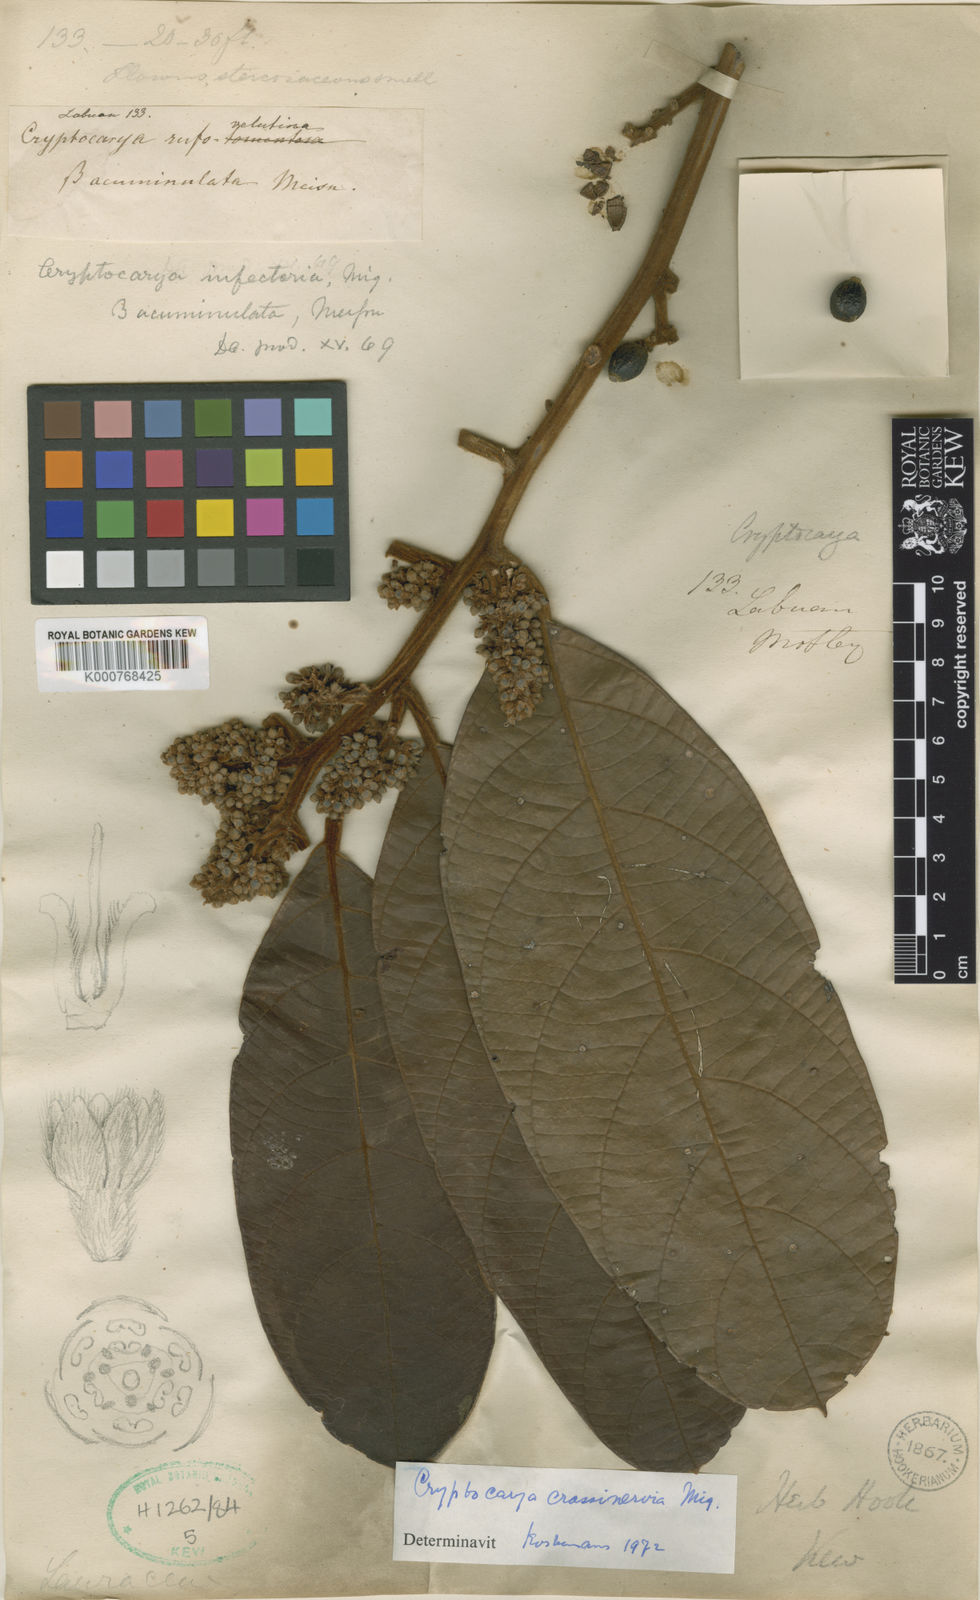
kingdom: Plantae
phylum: Tracheophyta
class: Magnoliopsida
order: Laurales
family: Lauraceae
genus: Cryptocarya
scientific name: Cryptocarya diversifolia
